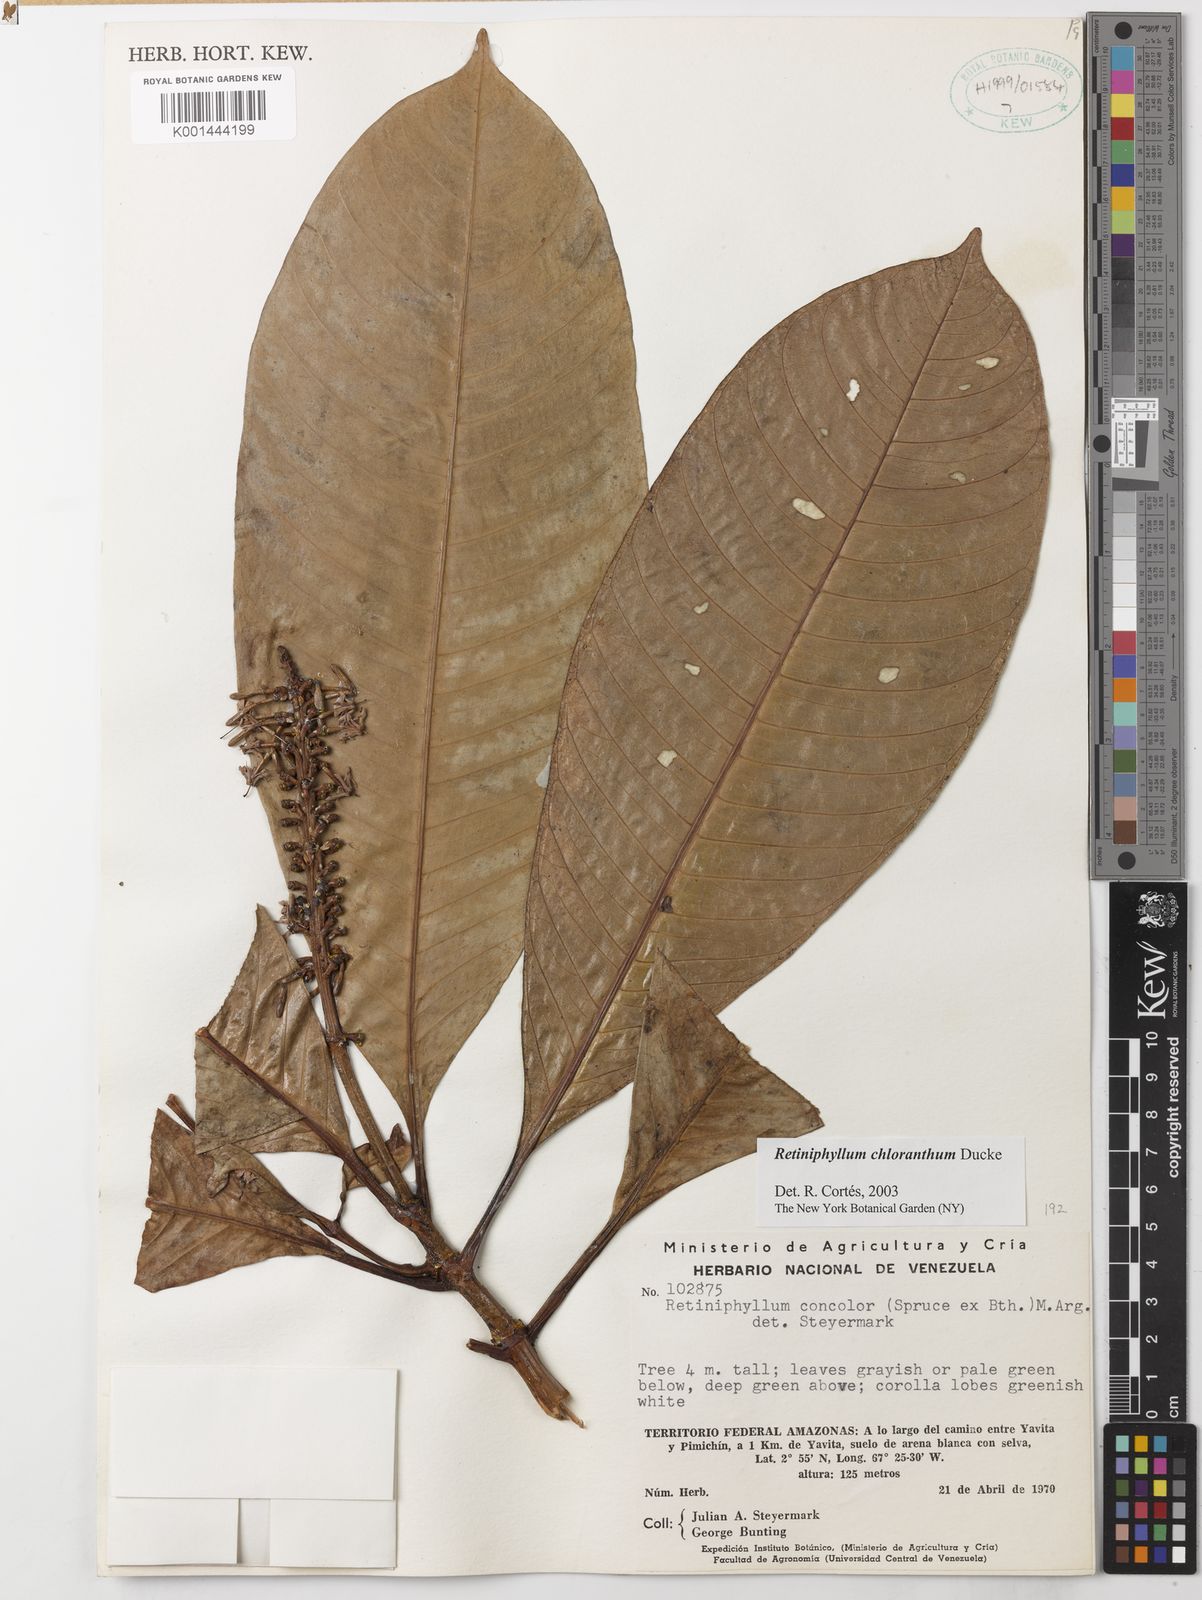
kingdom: Plantae
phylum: Tracheophyta
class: Magnoliopsida
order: Gentianales
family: Rubiaceae
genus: Retiniphyllum
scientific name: Retiniphyllum chloranthum
